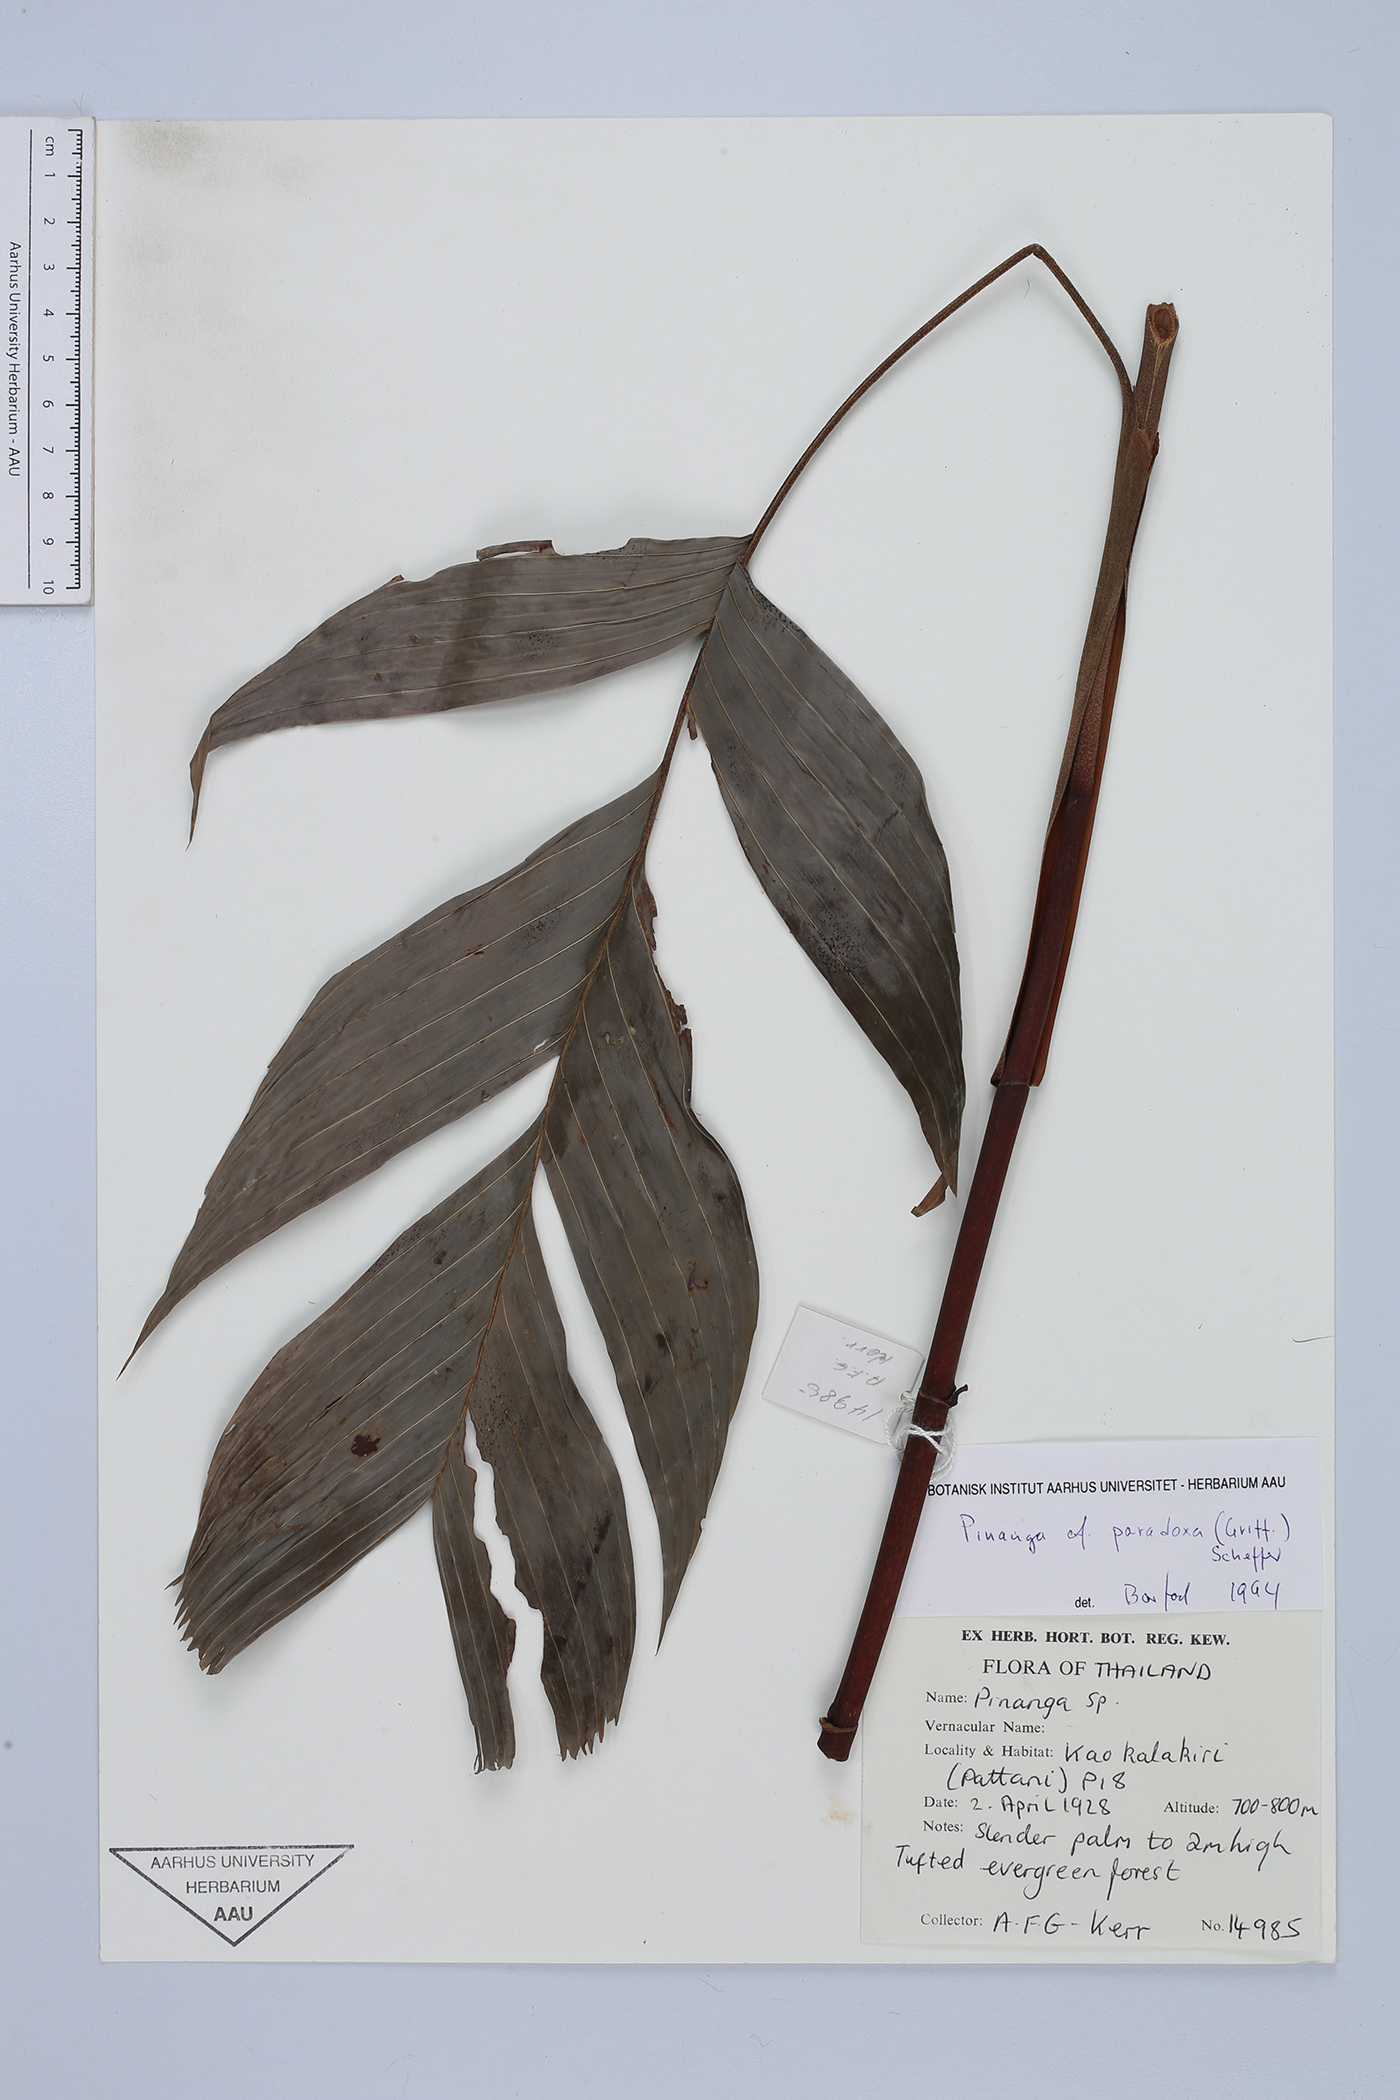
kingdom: Plantae
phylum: Tracheophyta
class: Liliopsida
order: Arecales
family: Arecaceae
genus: Pinanga
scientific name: Pinanga paradoxa
